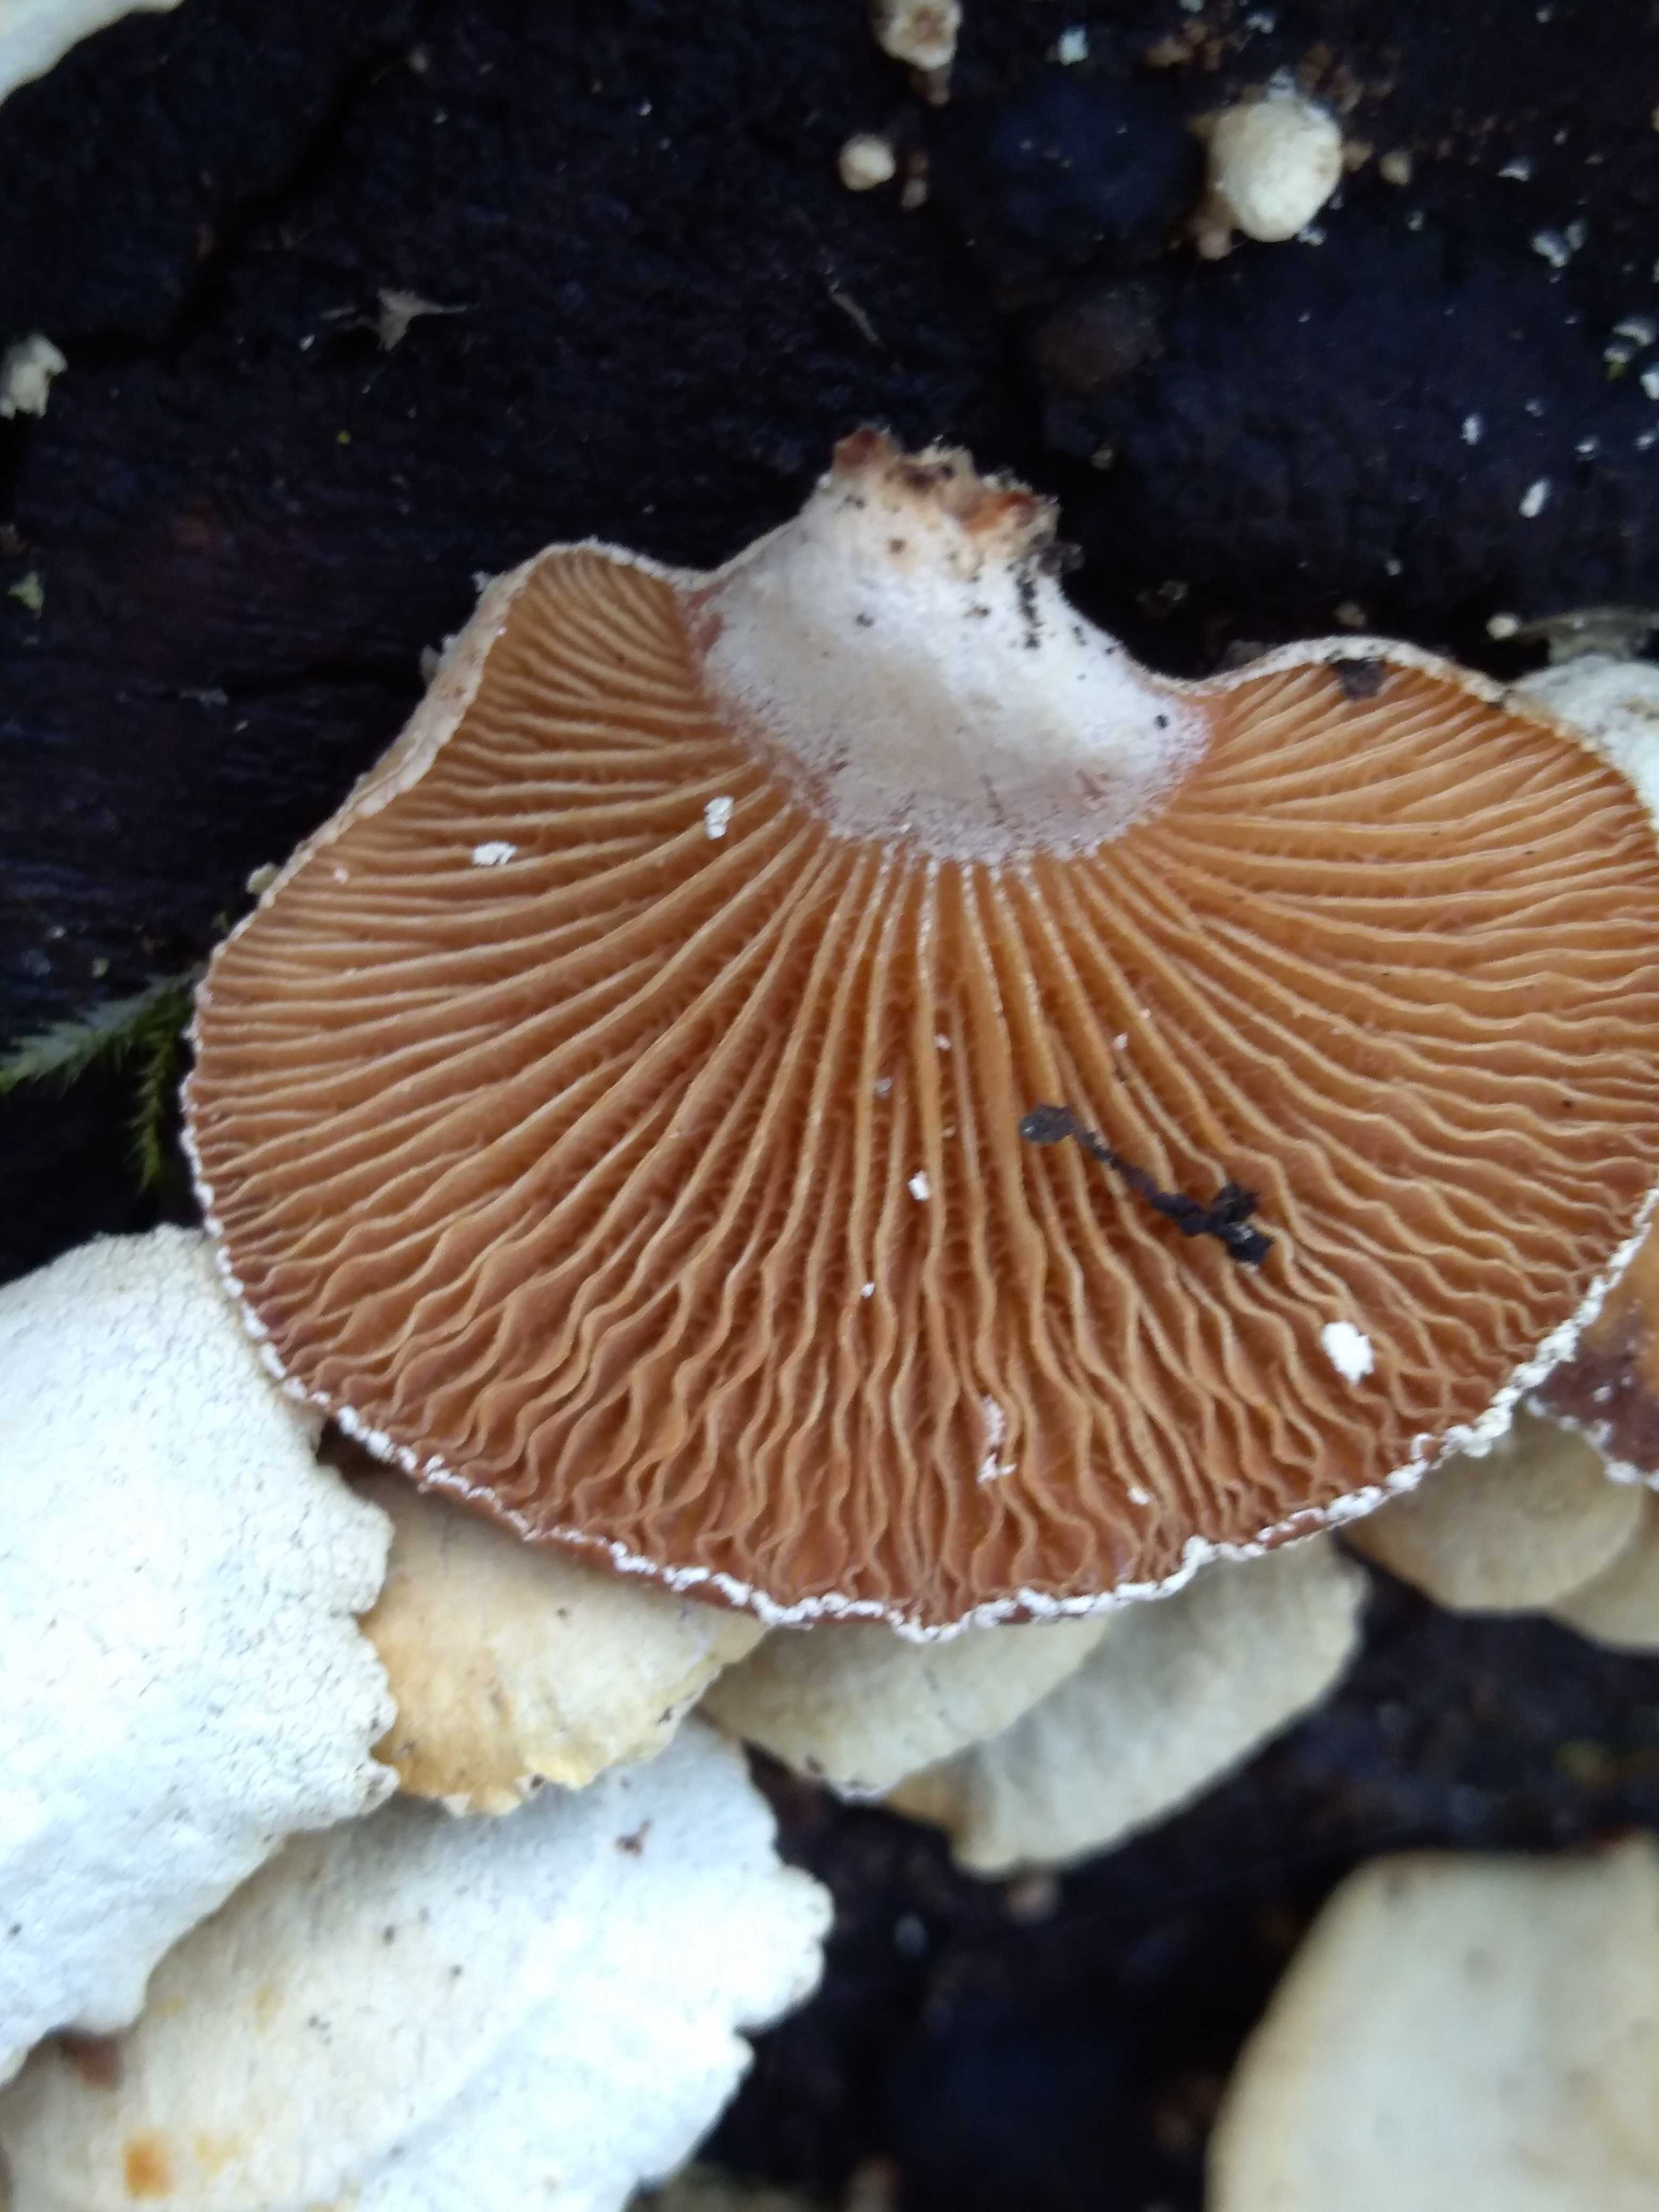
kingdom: Fungi
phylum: Basidiomycota
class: Agaricomycetes
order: Agaricales
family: Mycenaceae
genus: Panellus
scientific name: Panellus stipticus
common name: kliddet epaulethat
